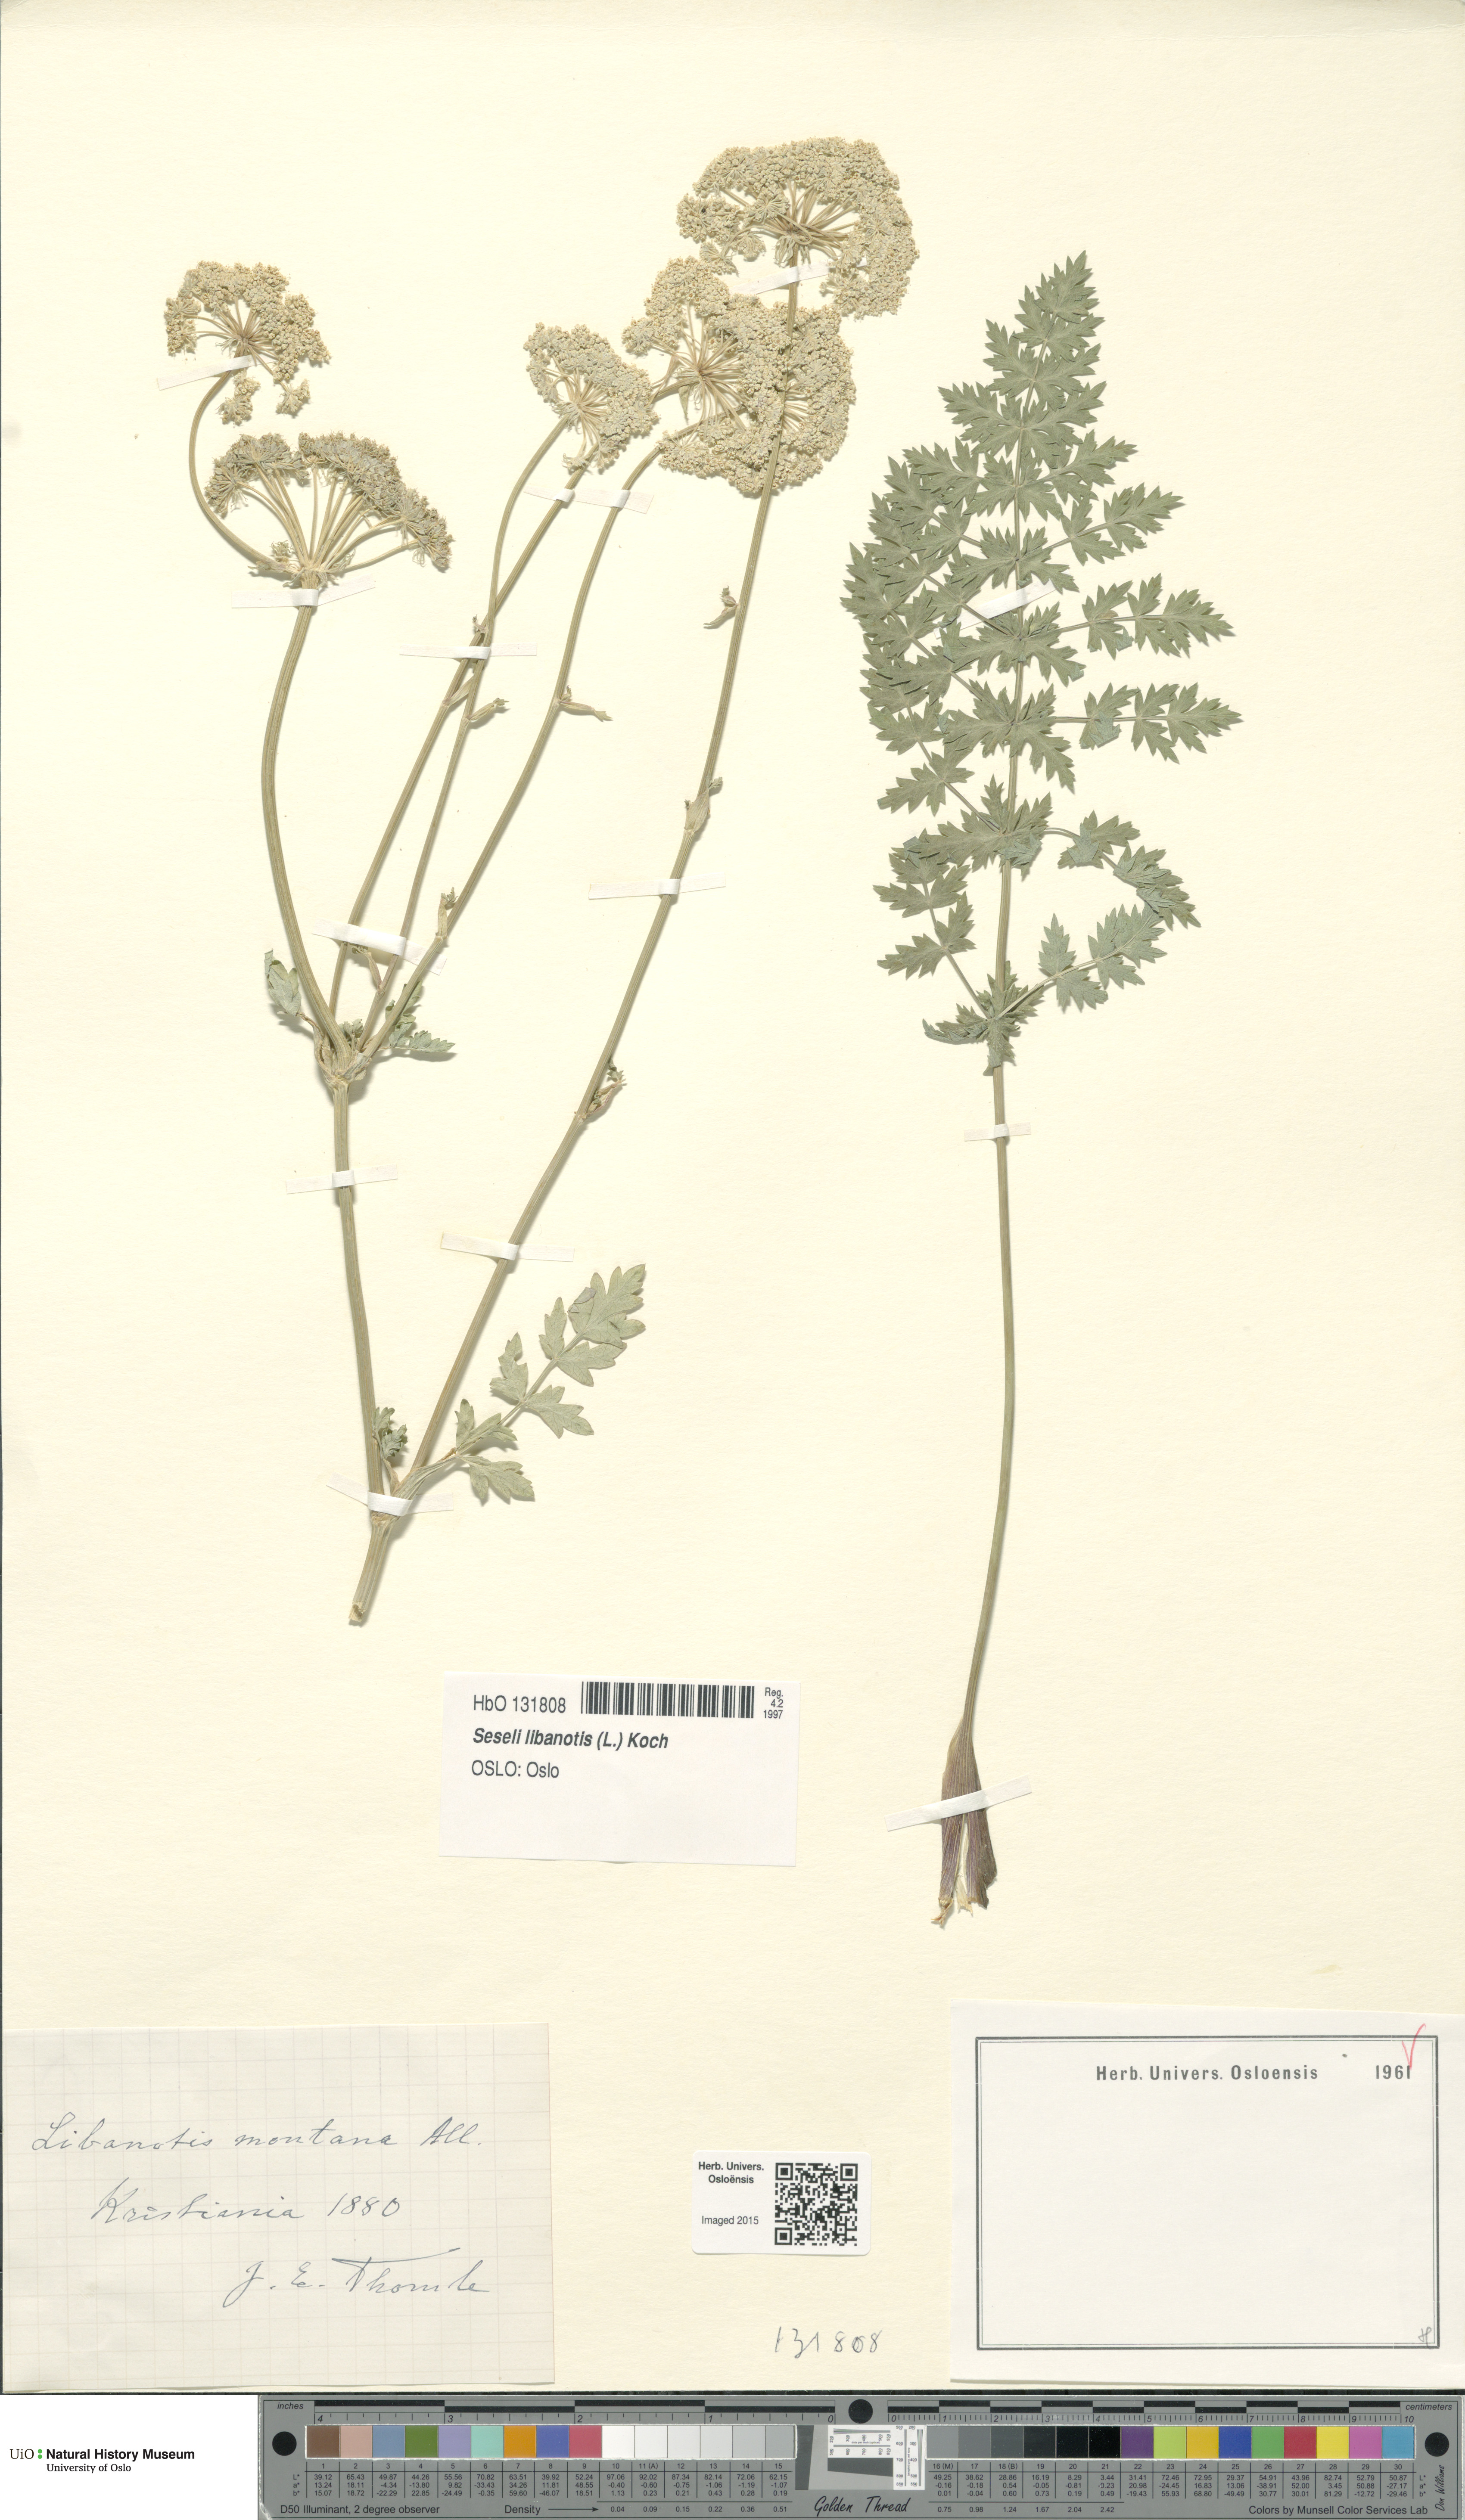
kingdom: Plantae
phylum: Tracheophyta
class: Magnoliopsida
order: Apiales
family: Apiaceae
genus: Seseli
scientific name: Seseli libanotis
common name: Mooncarrot
